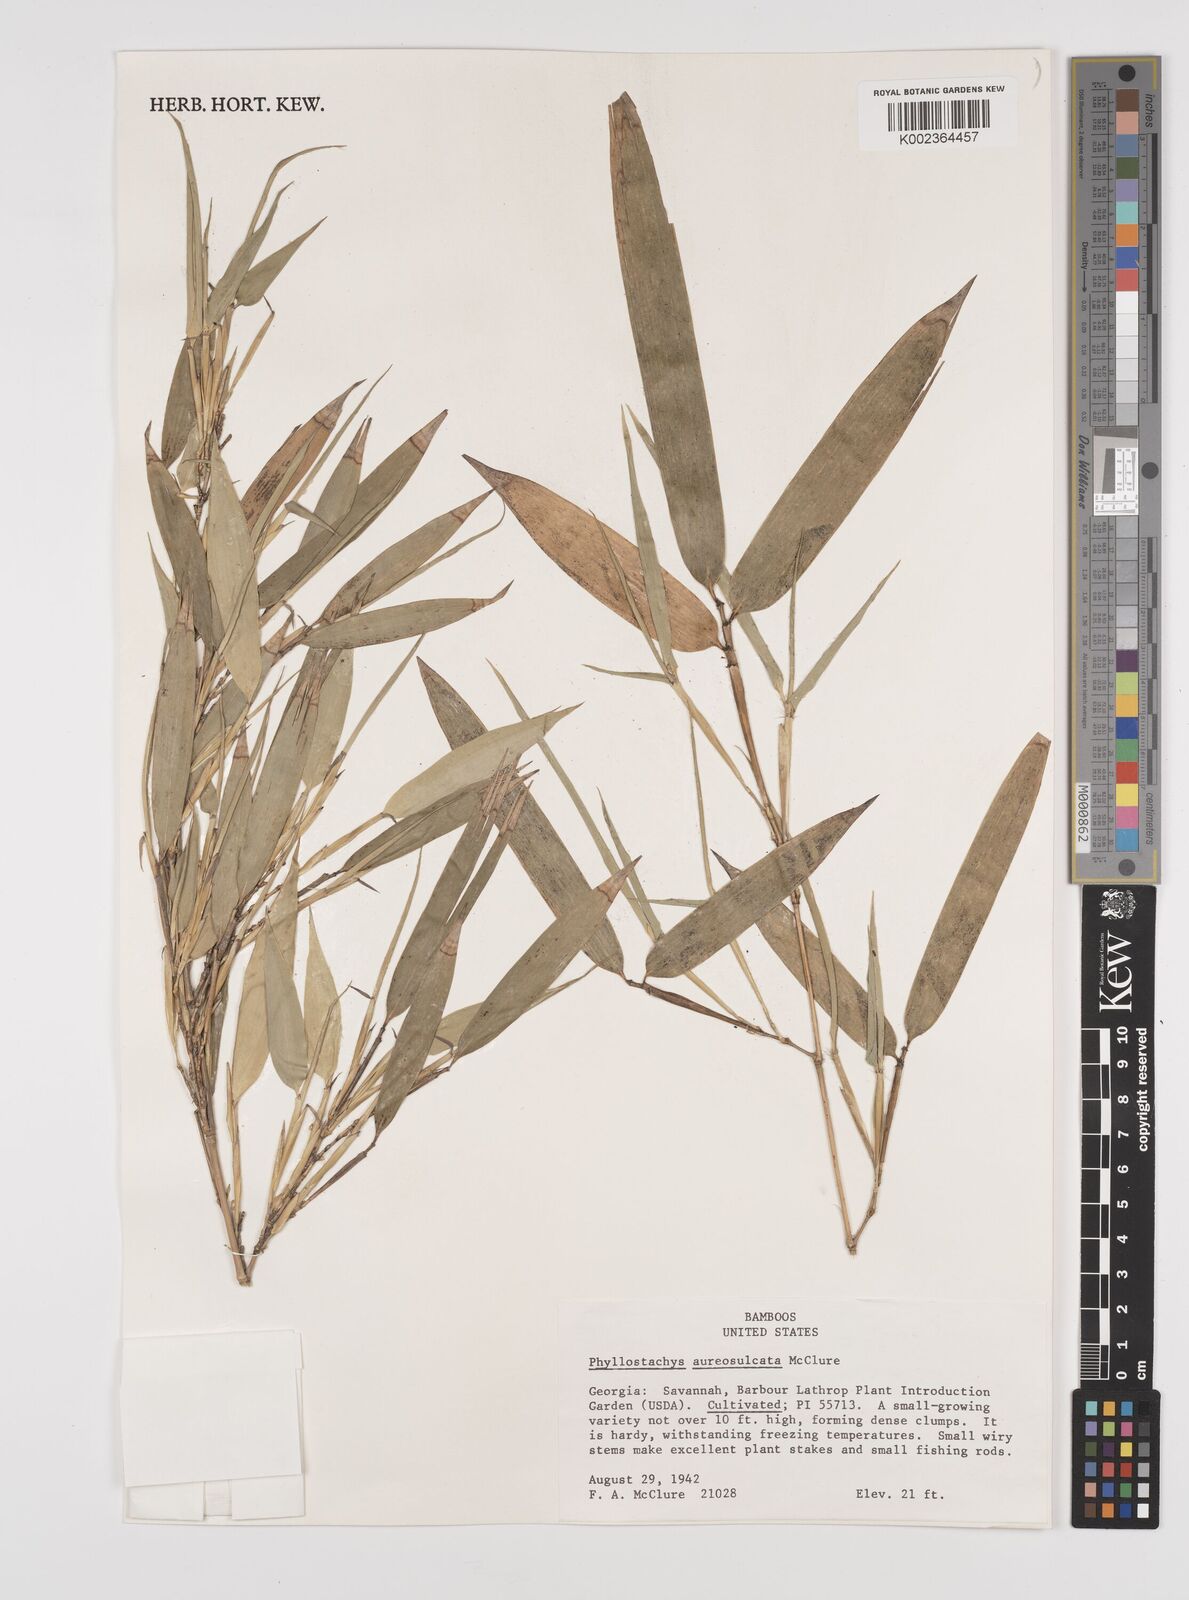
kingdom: Plantae
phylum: Tracheophyta
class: Liliopsida
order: Poales
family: Poaceae
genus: Phyllostachys
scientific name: Phyllostachys aureosulcata
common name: Yellow groove bamboo
